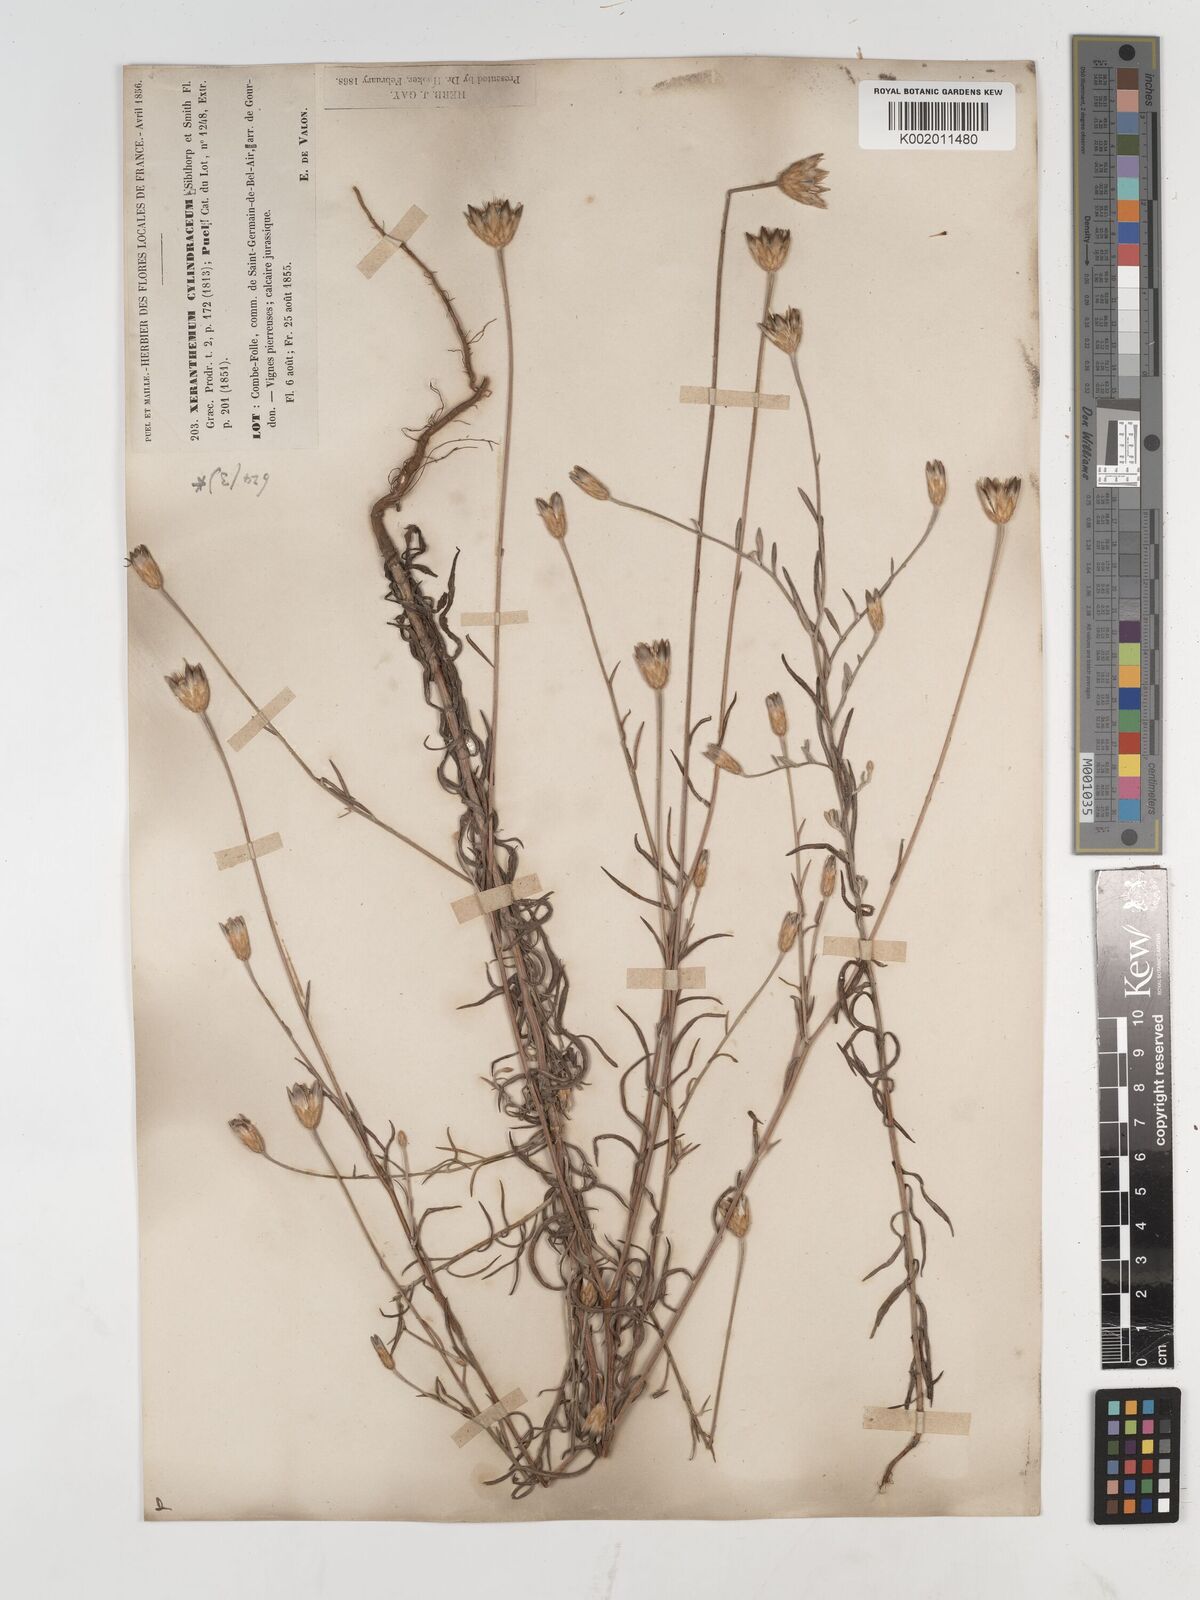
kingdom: Plantae
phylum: Tracheophyta
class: Magnoliopsida
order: Asterales
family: Asteraceae
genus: Xeranthemum
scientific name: Xeranthemum cylindraceum
